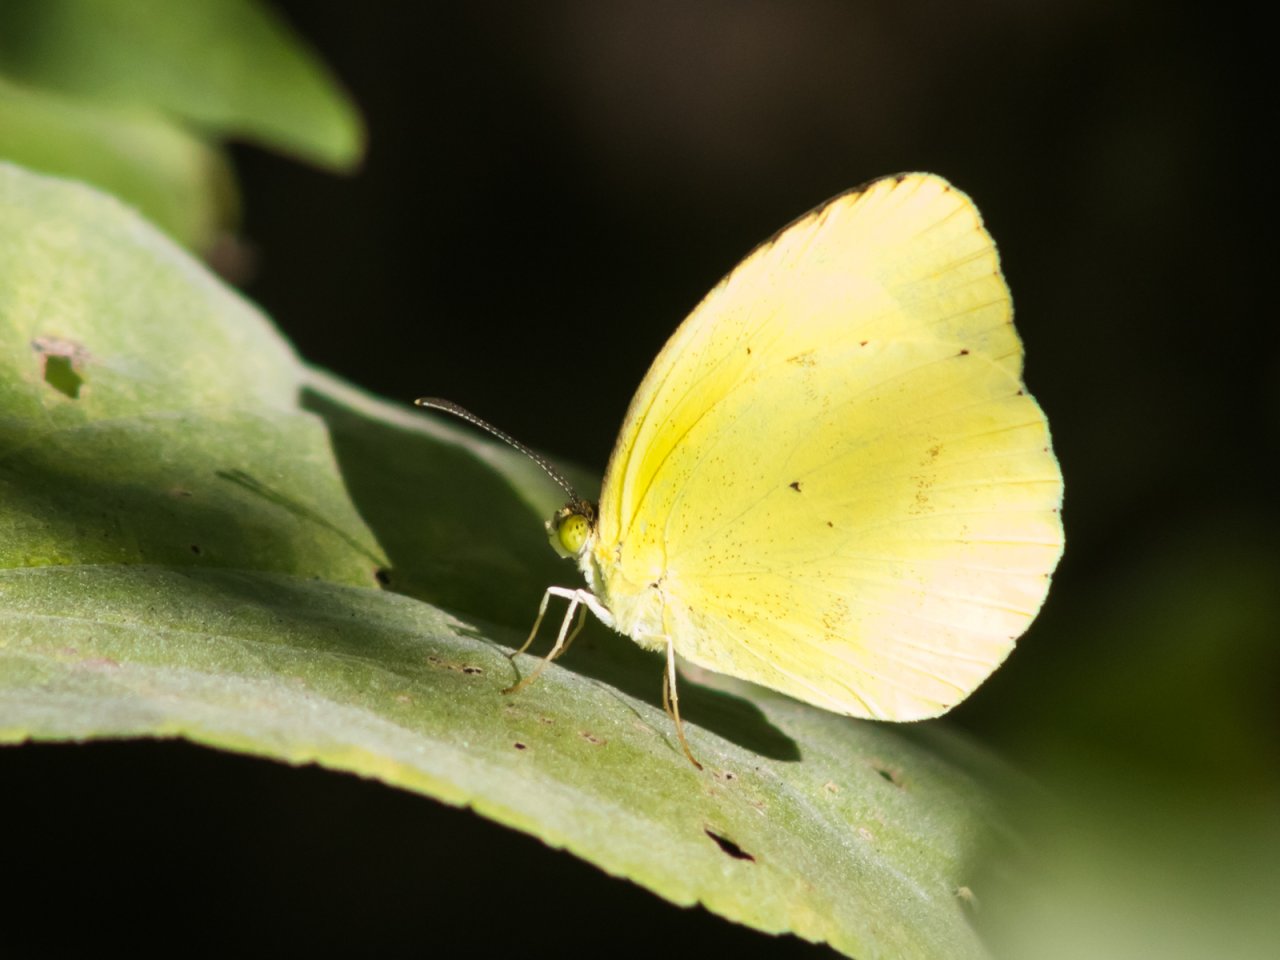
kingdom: Animalia
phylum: Arthropoda
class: Insecta
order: Lepidoptera
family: Pieridae
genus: Pyrisitia
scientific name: Pyrisitia nise
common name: Mimosa Yellow
